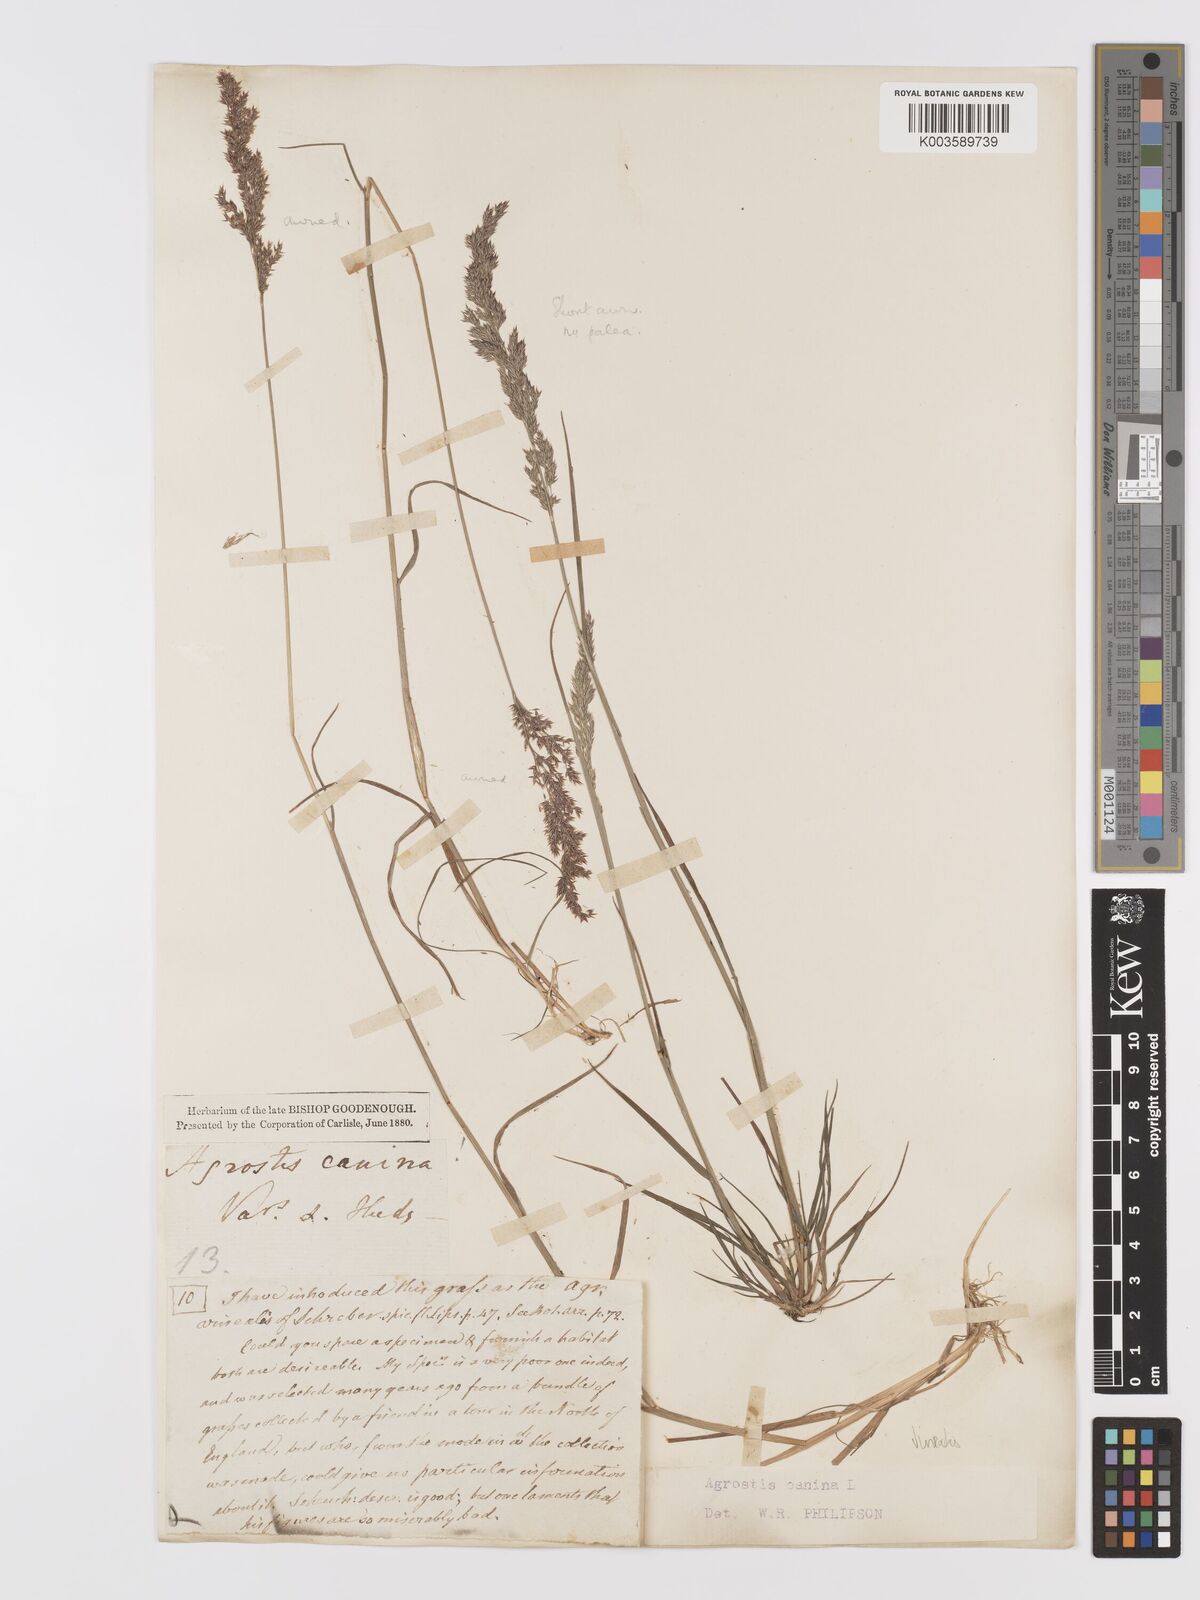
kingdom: Plantae
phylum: Tracheophyta
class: Liliopsida
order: Poales
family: Poaceae
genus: Agrostis
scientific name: Agrostis
